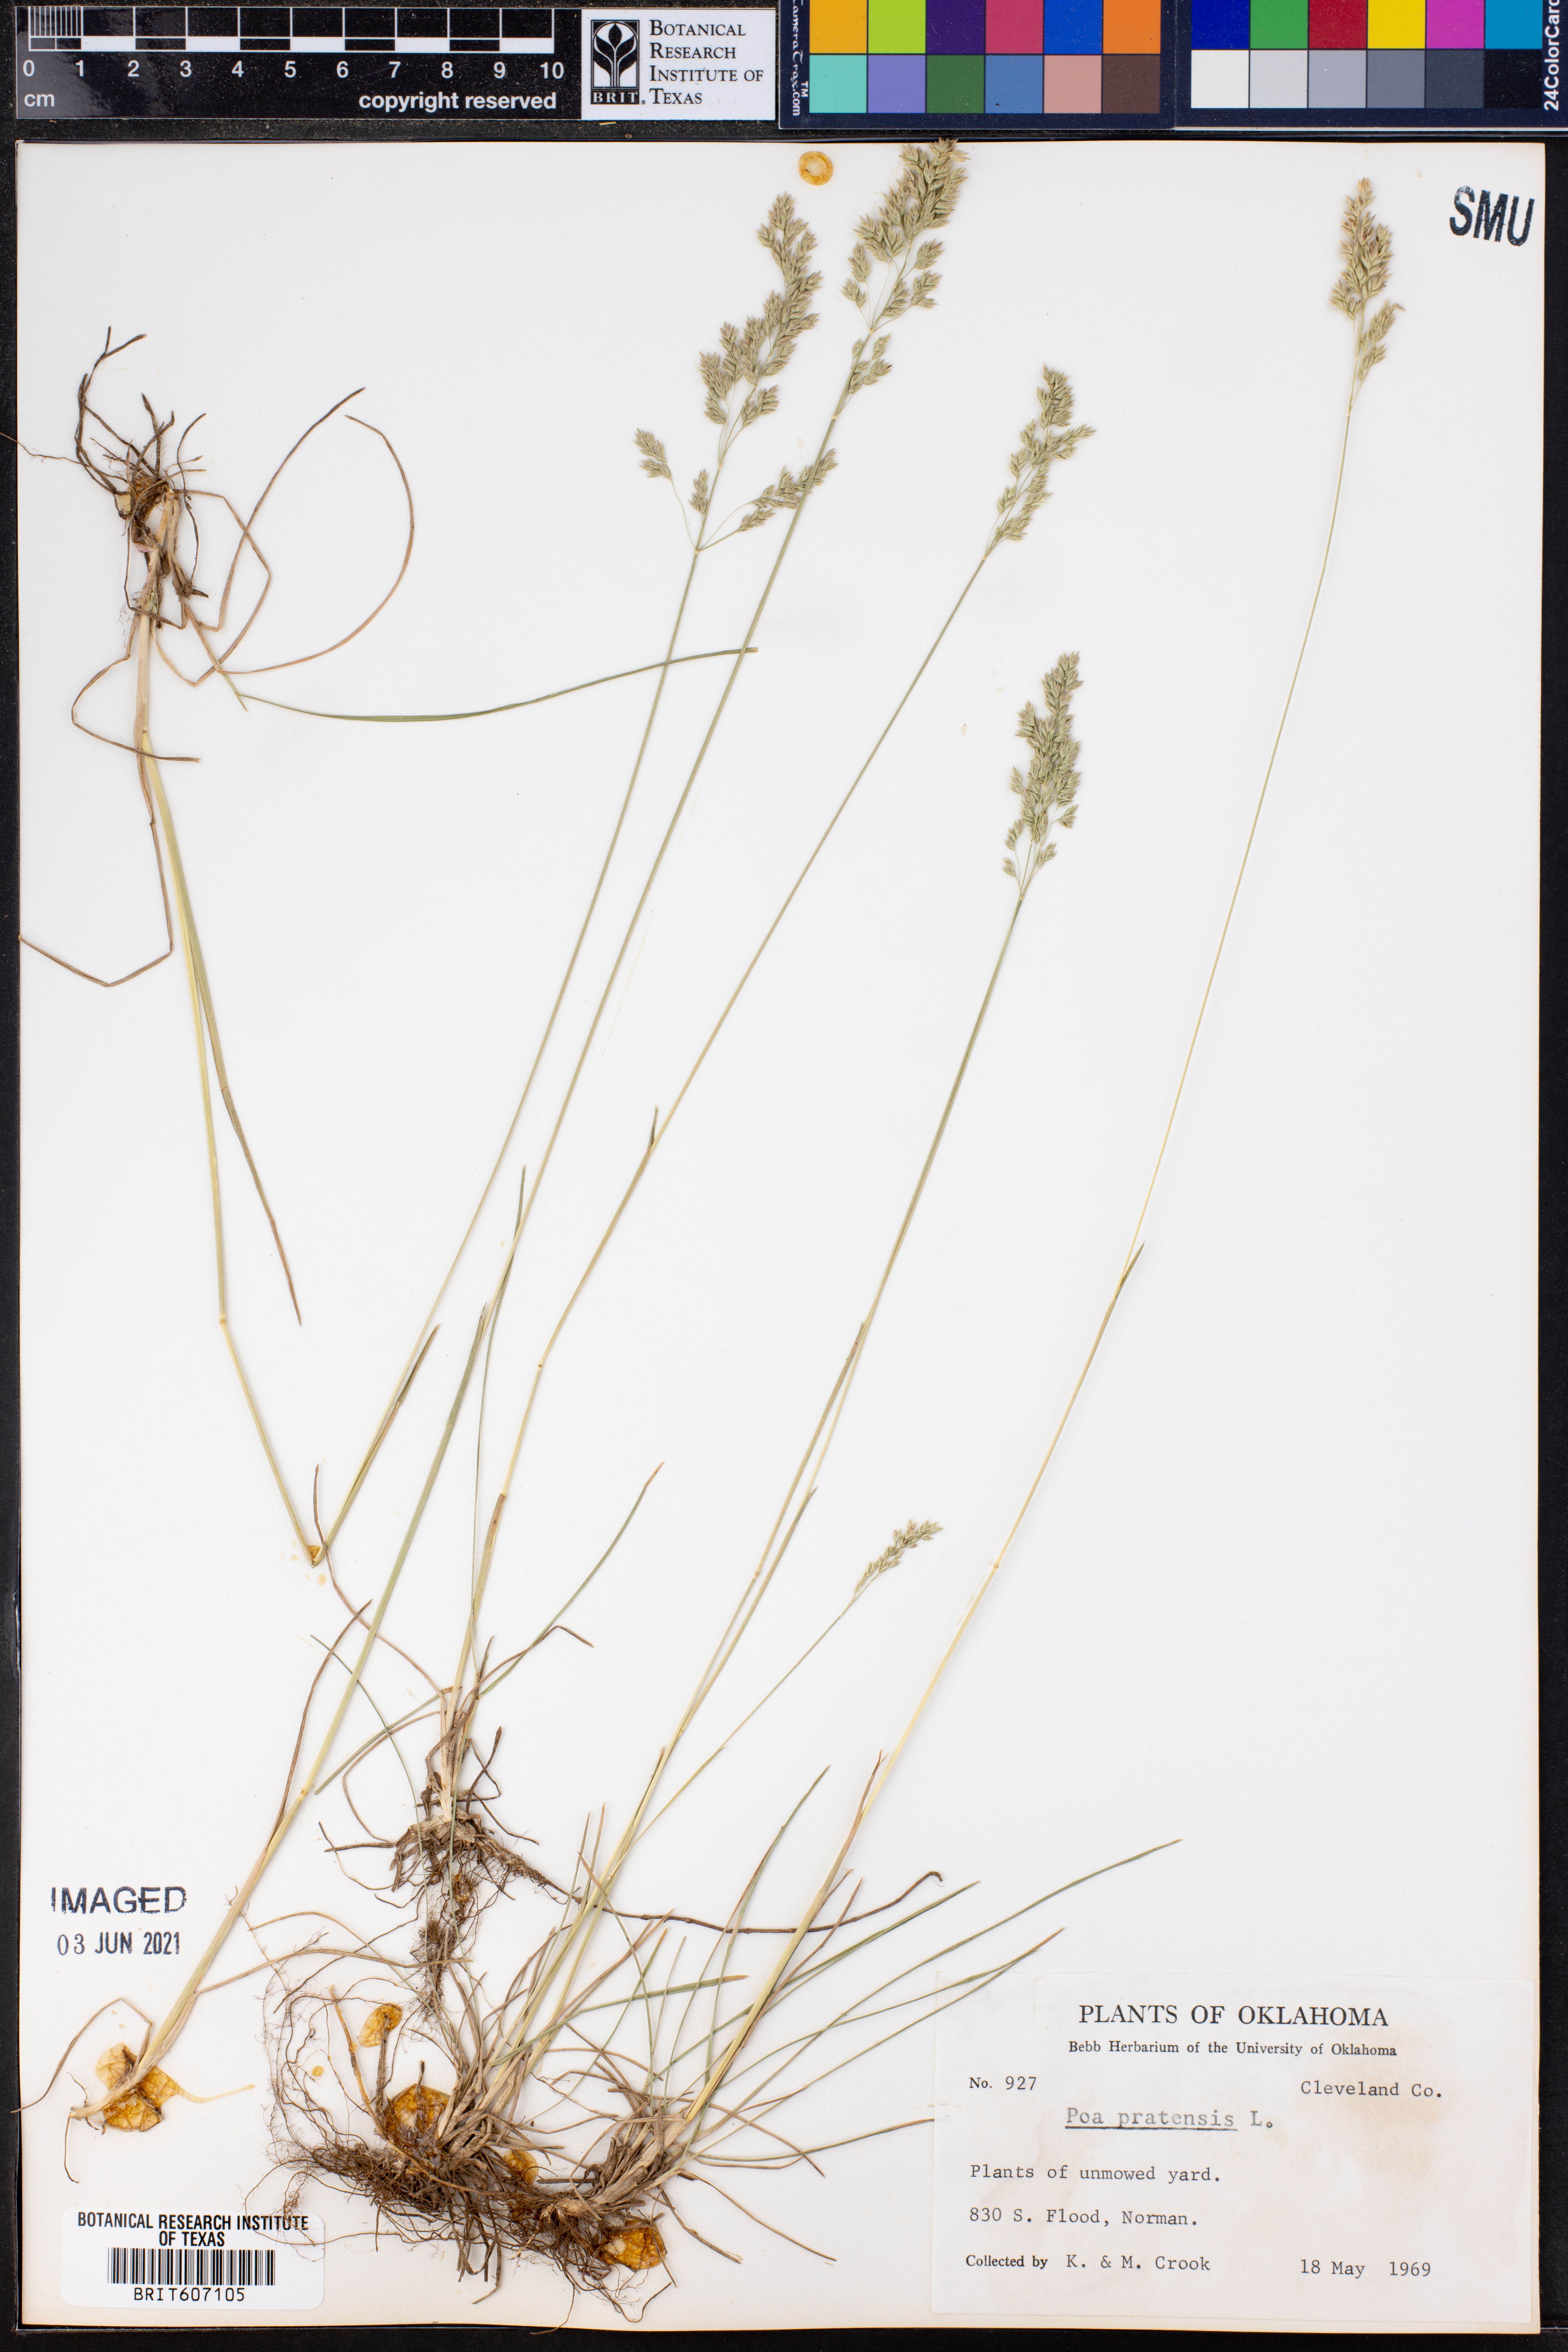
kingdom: Plantae
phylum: Tracheophyta
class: Liliopsida
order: Poales
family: Poaceae
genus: Poa
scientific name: Poa pratensis
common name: Kentucky bluegrass
